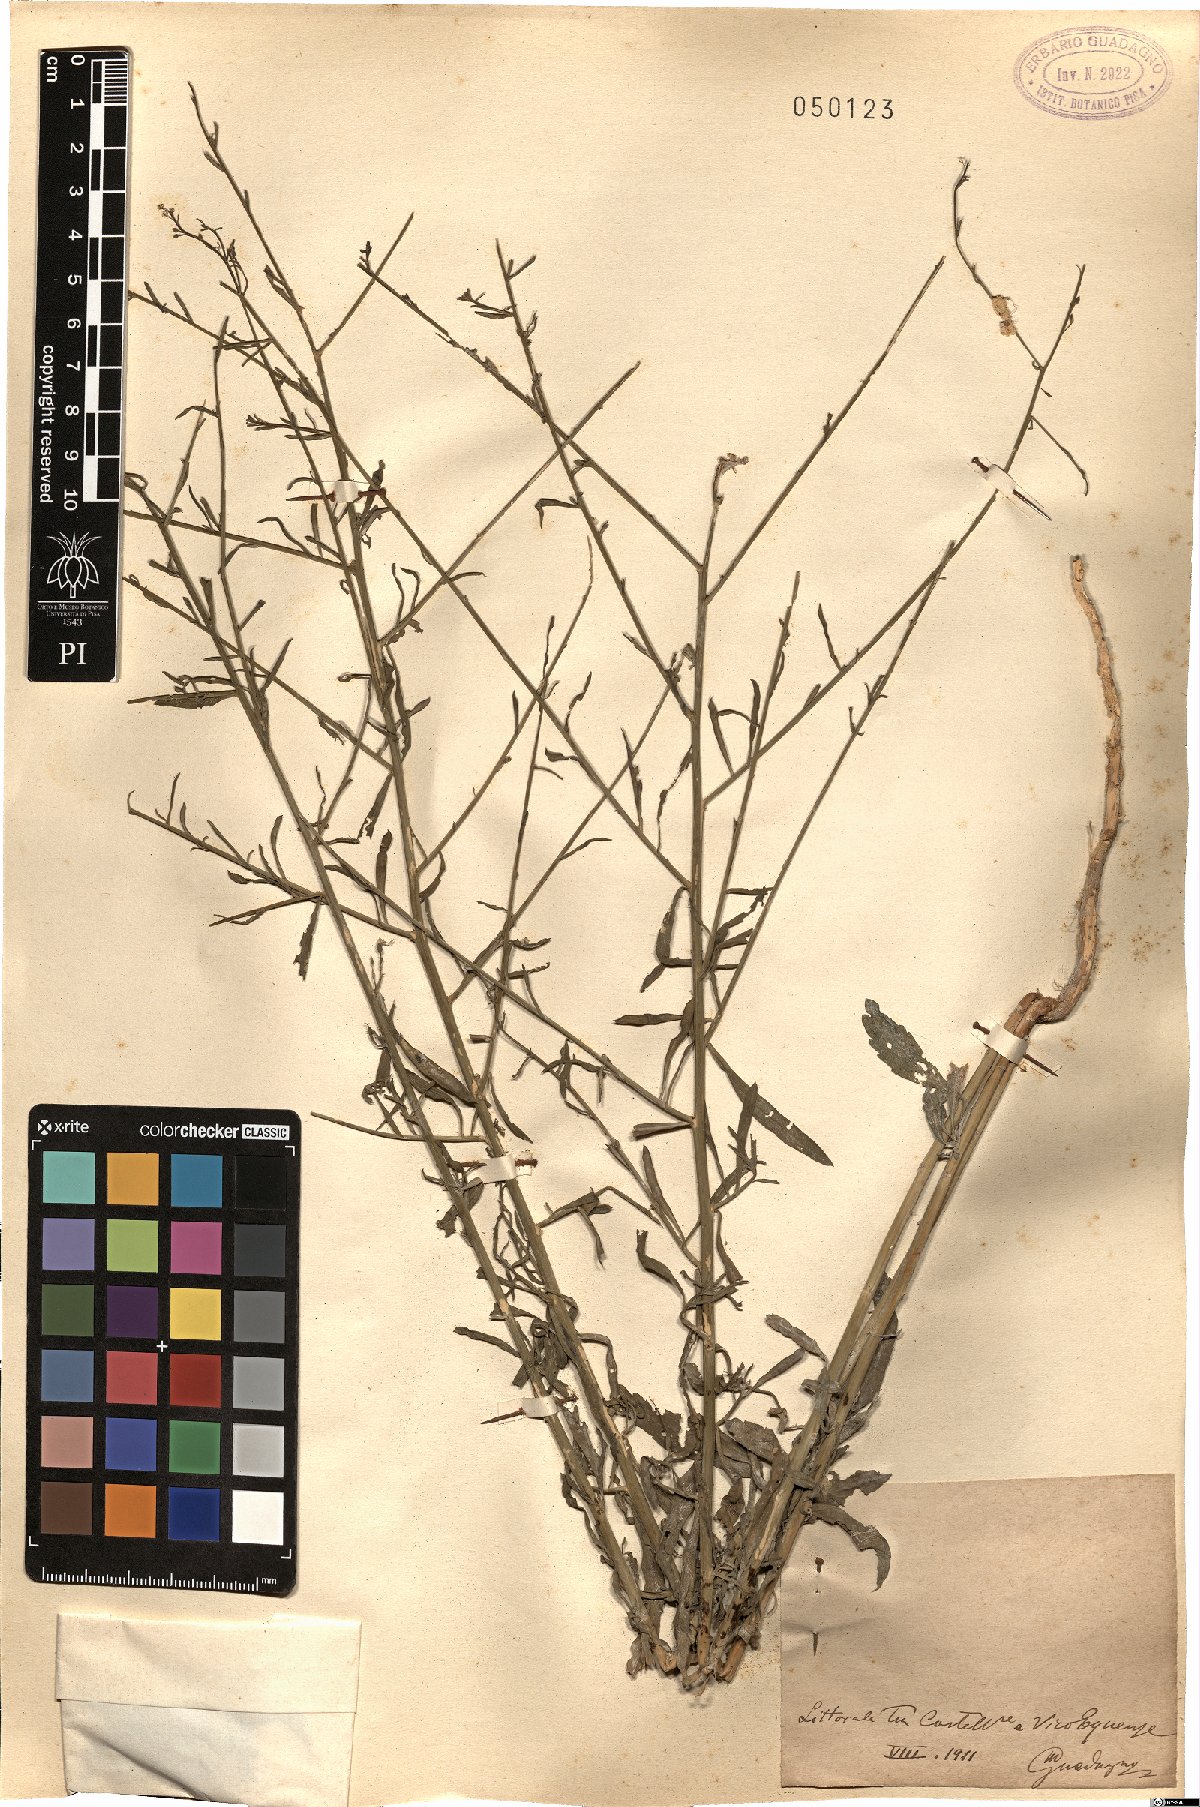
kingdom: Plantae
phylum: Tracheophyta
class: Magnoliopsida
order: Brassicales
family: Brassicaceae
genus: Lepidium
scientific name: Lepidium
